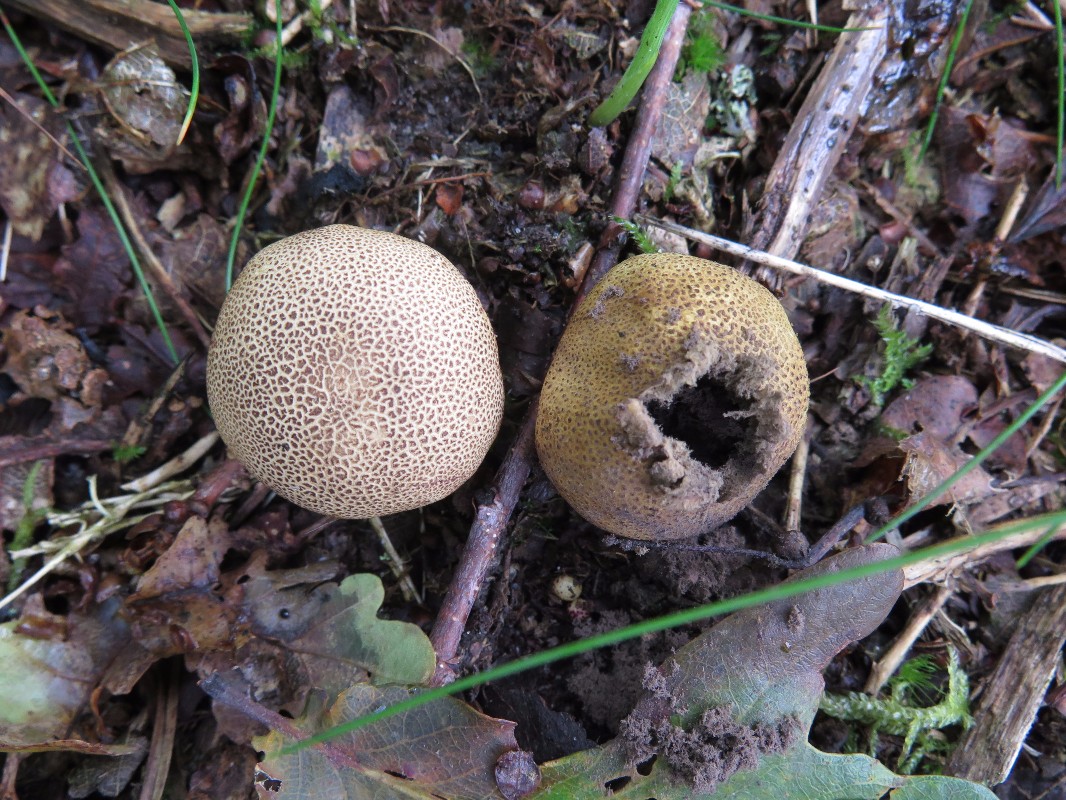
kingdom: Fungi
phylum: Basidiomycota
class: Agaricomycetes
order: Boletales
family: Sclerodermataceae
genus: Scleroderma
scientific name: Scleroderma areolatum
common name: plettet bruskbold
